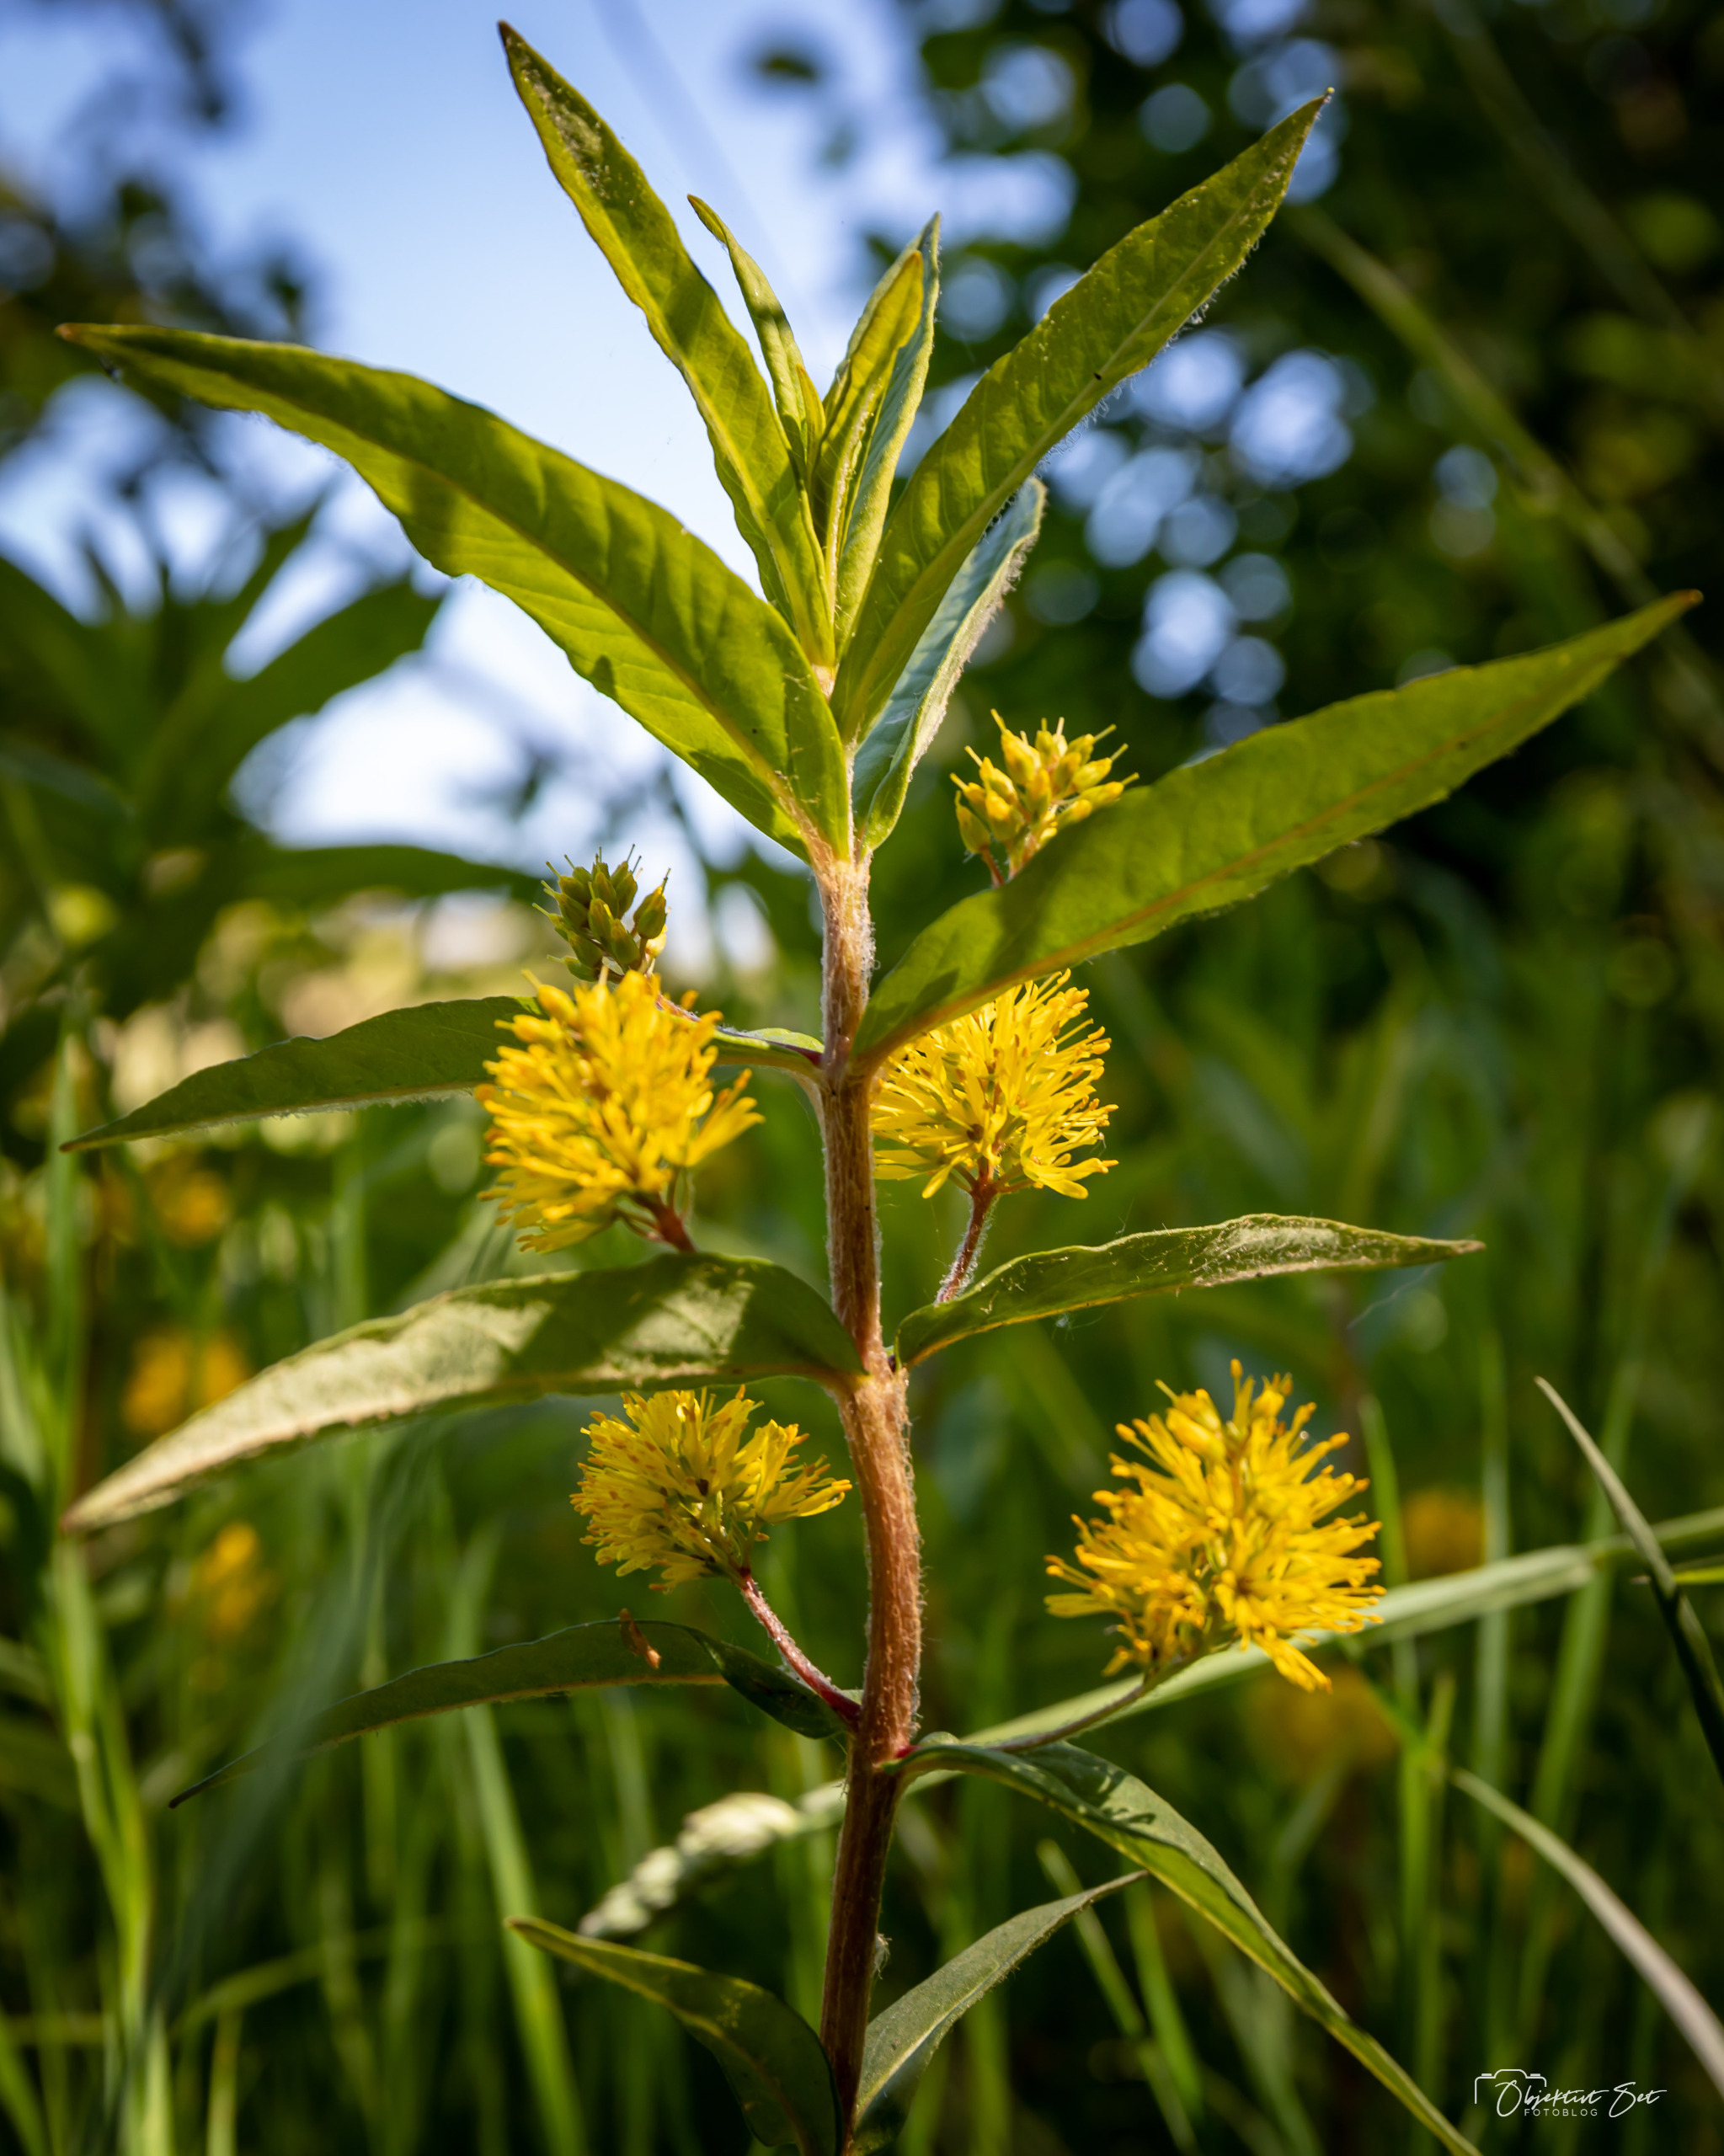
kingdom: Plantae
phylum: Tracheophyta
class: Magnoliopsida
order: Ericales
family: Primulaceae
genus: Lysimachia
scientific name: Lysimachia thyrsiflora
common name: Dusk-fredløs
